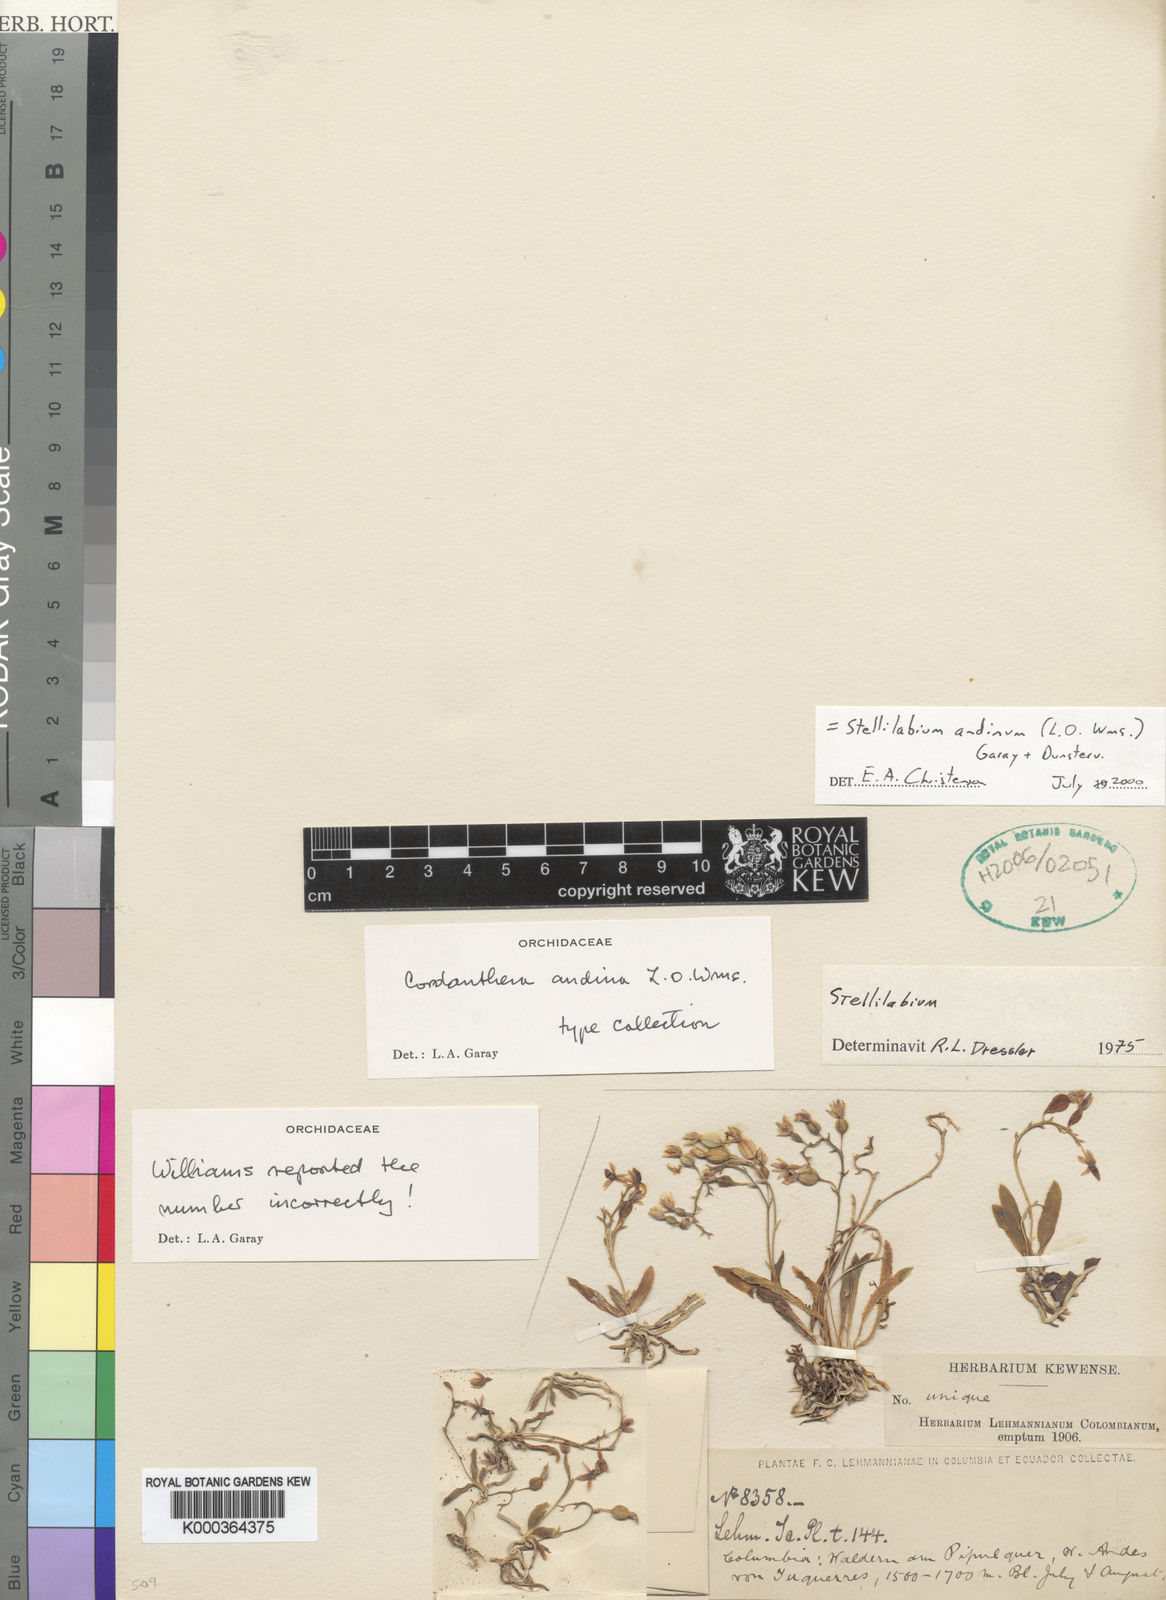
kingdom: Plantae
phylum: Tracheophyta
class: Liliopsida
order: Asparagales
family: Orchidaceae
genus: Telipogon
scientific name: Telipogon williamsii
